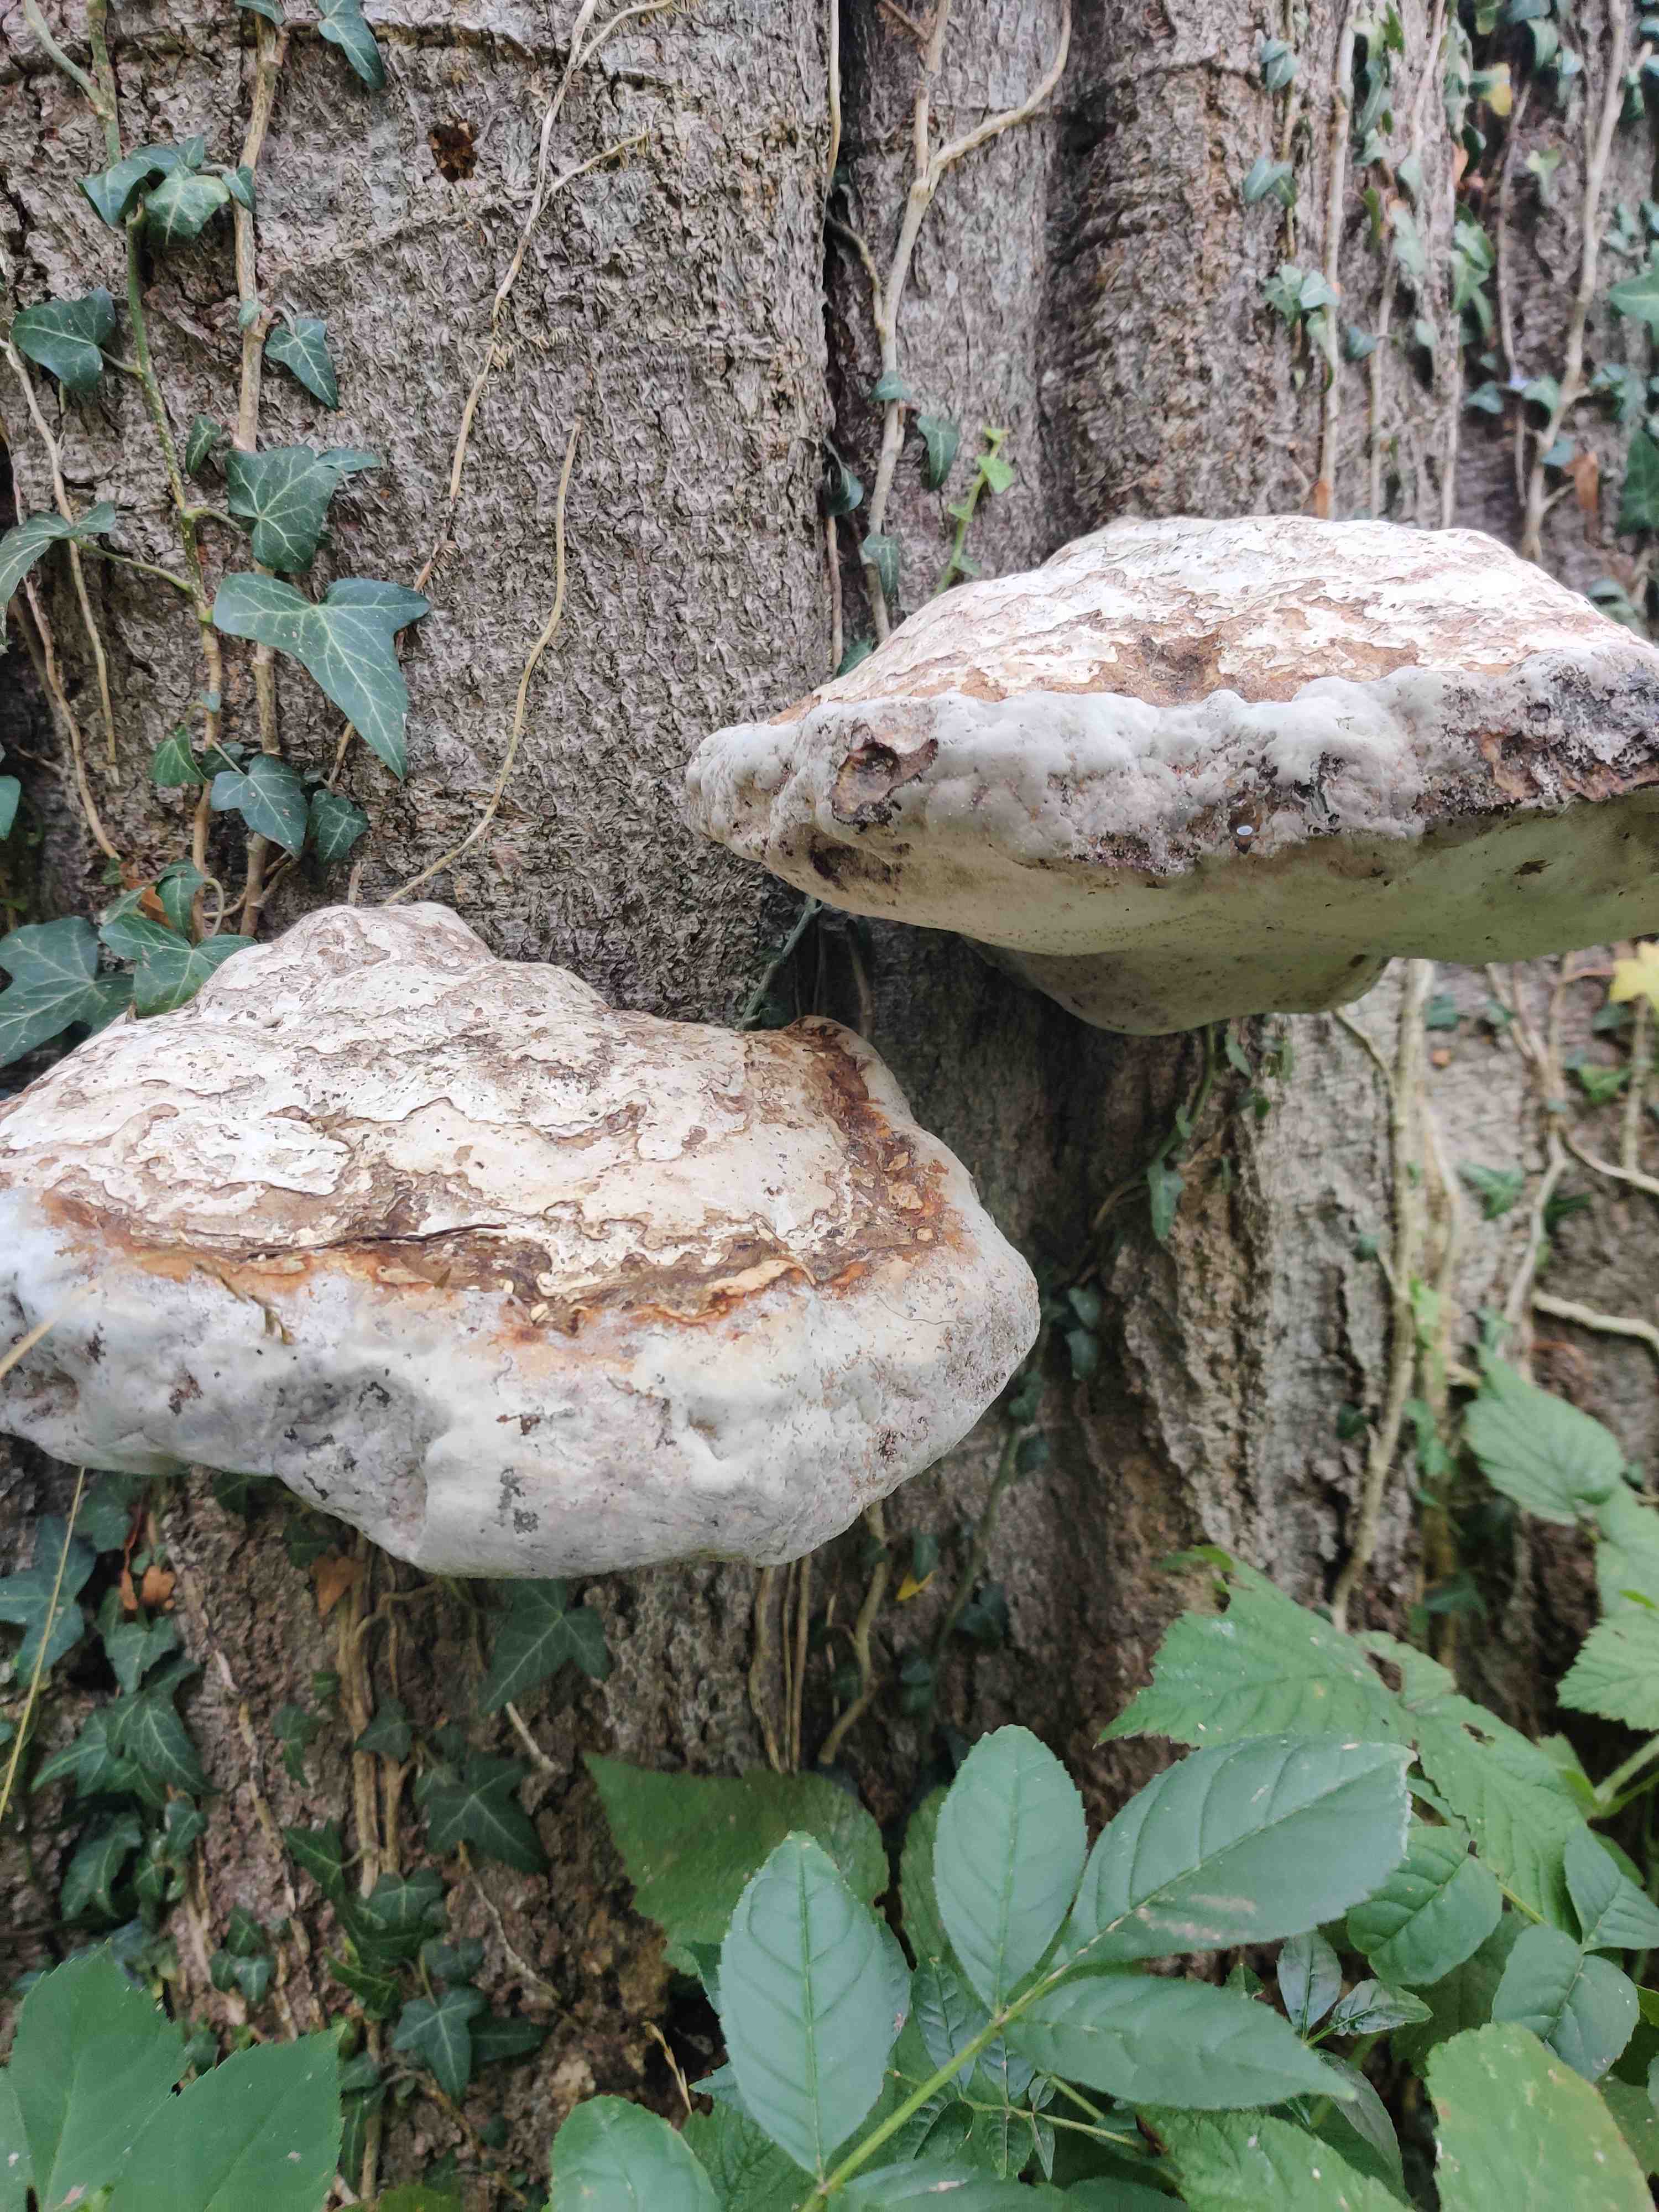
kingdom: Fungi
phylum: Basidiomycota
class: Agaricomycetes
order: Polyporales
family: Polyporaceae
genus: Fomes
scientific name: Fomes fomentarius
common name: tøndersvamp
